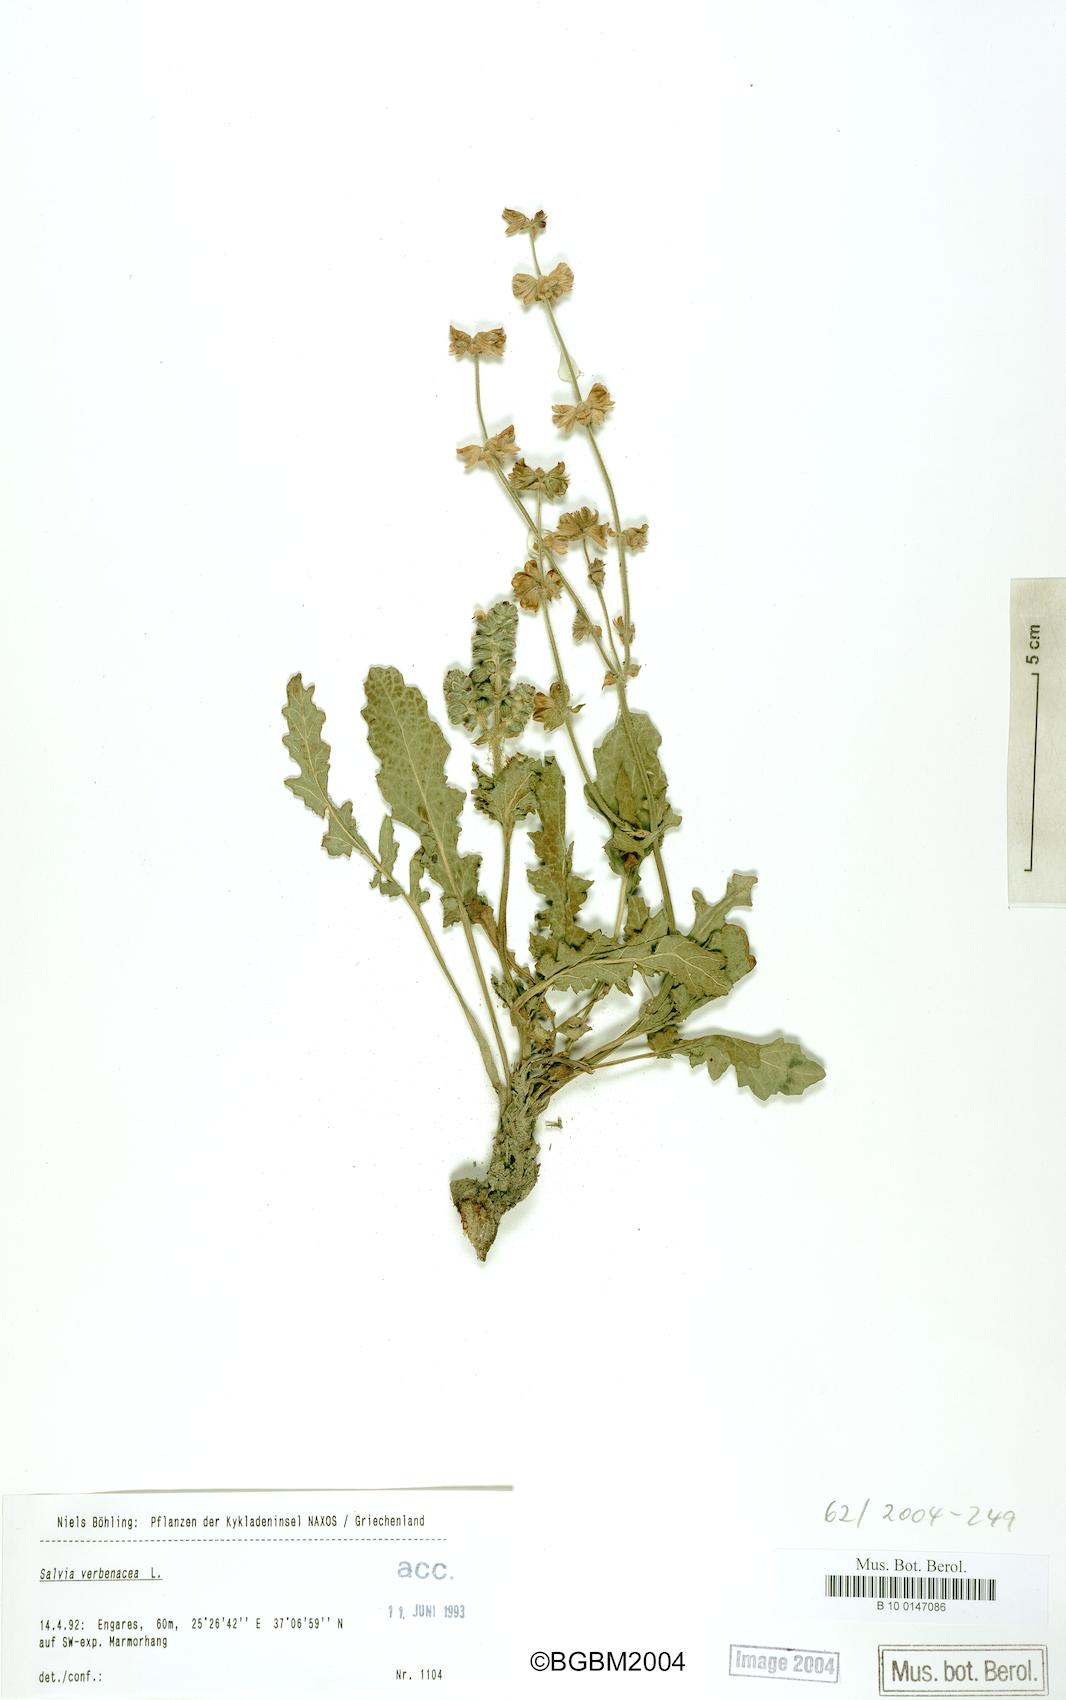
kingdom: Plantae
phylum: Tracheophyta
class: Magnoliopsida
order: Lamiales
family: Lamiaceae
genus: Salvia
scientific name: Salvia verbenaca
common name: Wild clary
